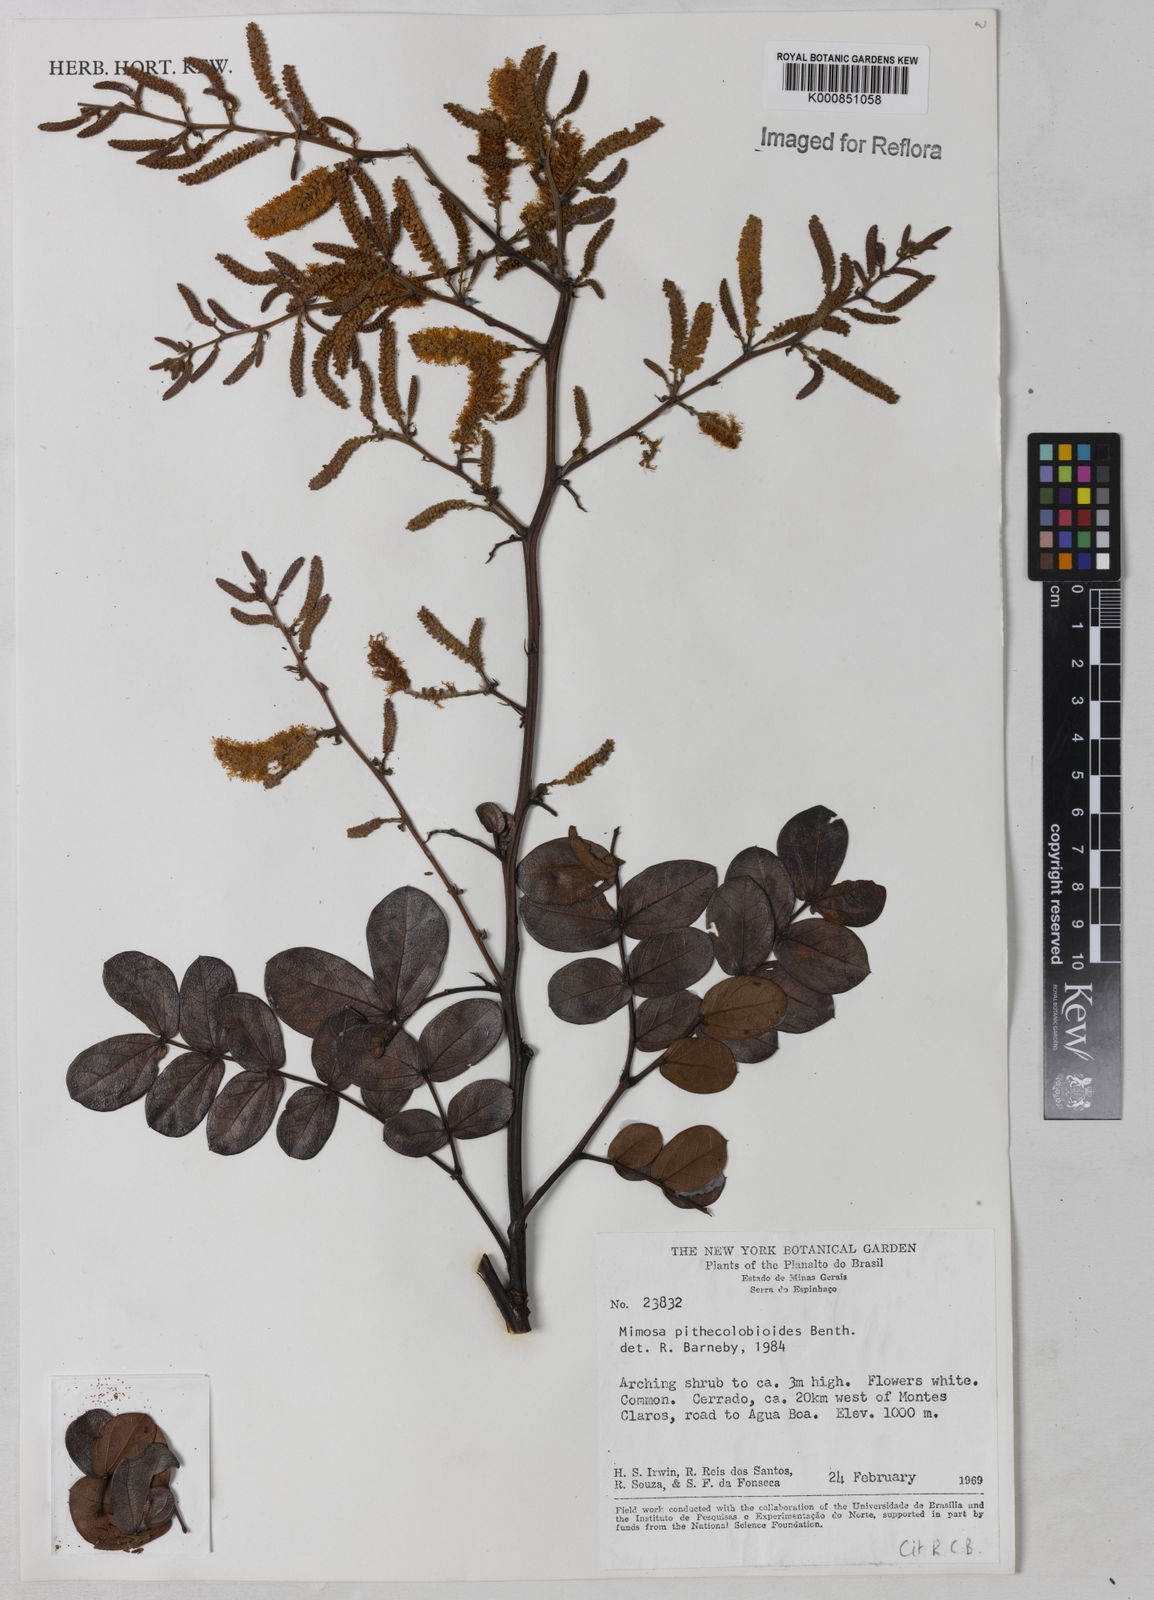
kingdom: Plantae
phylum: Tracheophyta
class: Magnoliopsida
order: Fabales
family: Fabaceae
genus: Mimosa
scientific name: Mimosa pithecolobioides
